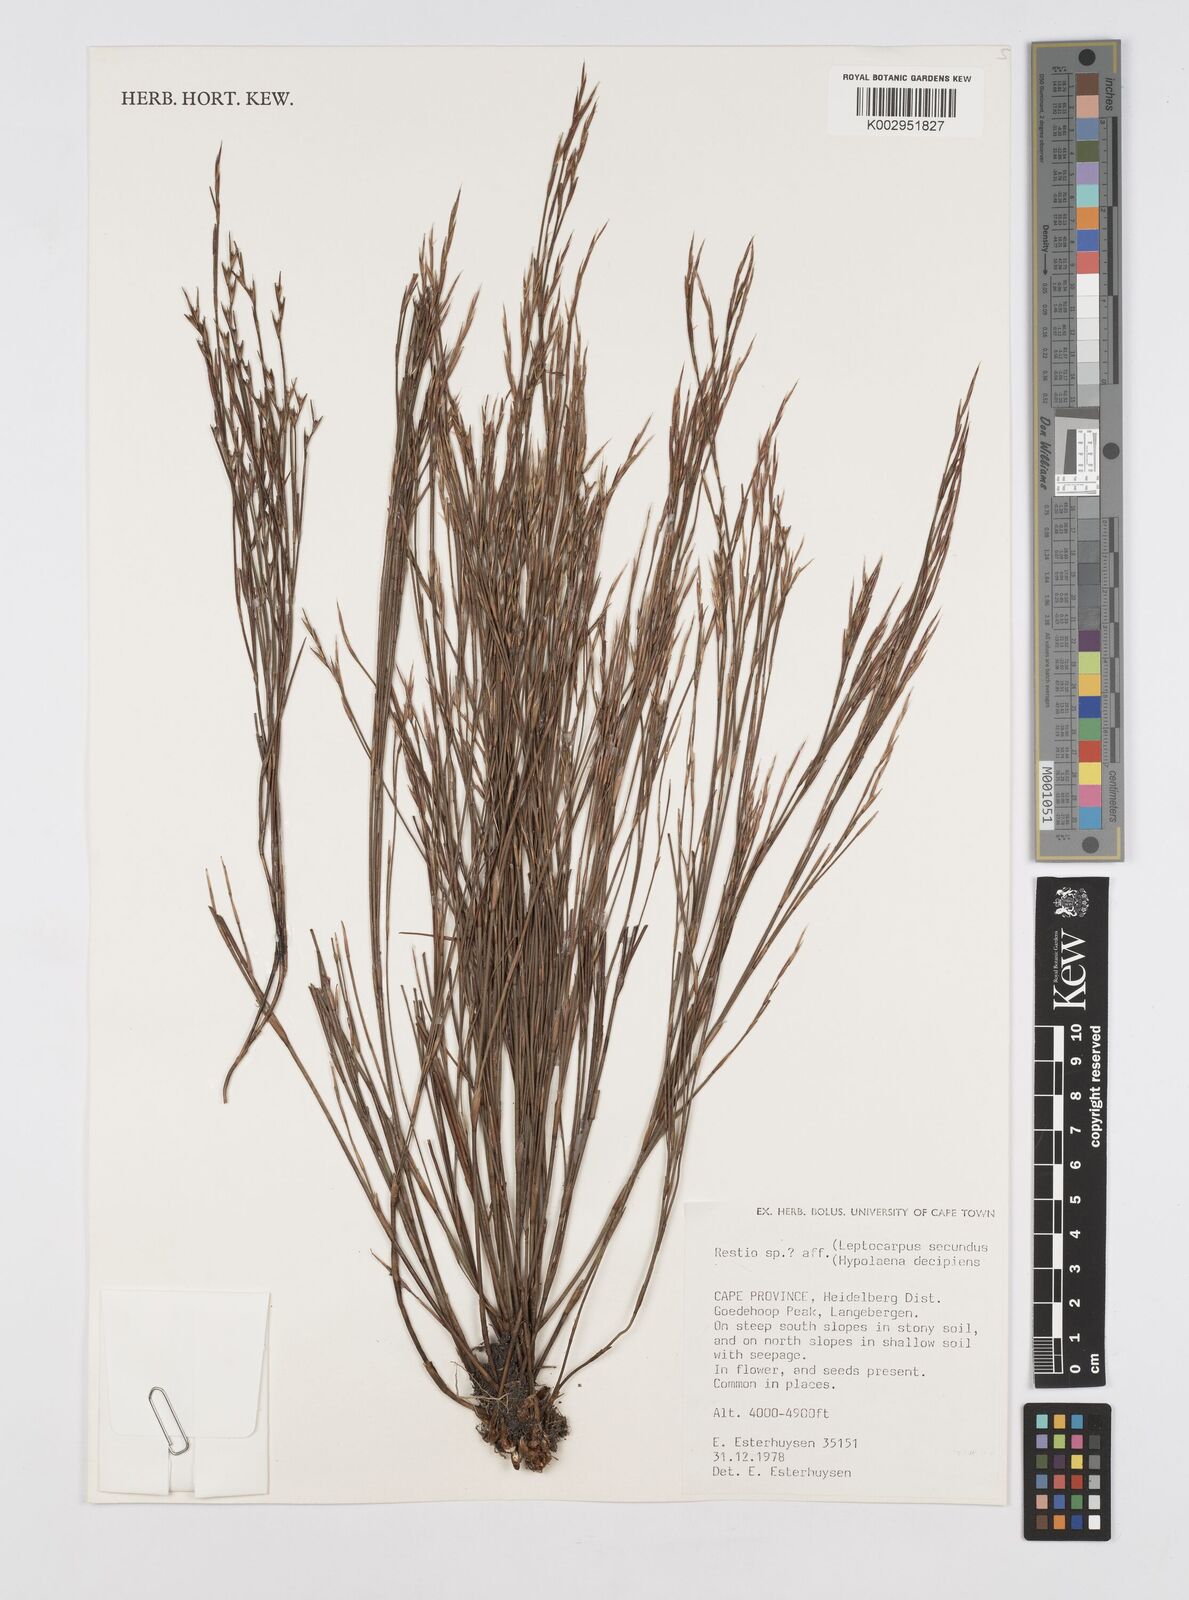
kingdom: Plantae
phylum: Tracheophyta
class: Liliopsida
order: Poales
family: Restionaceae
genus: Restio
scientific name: Restio
